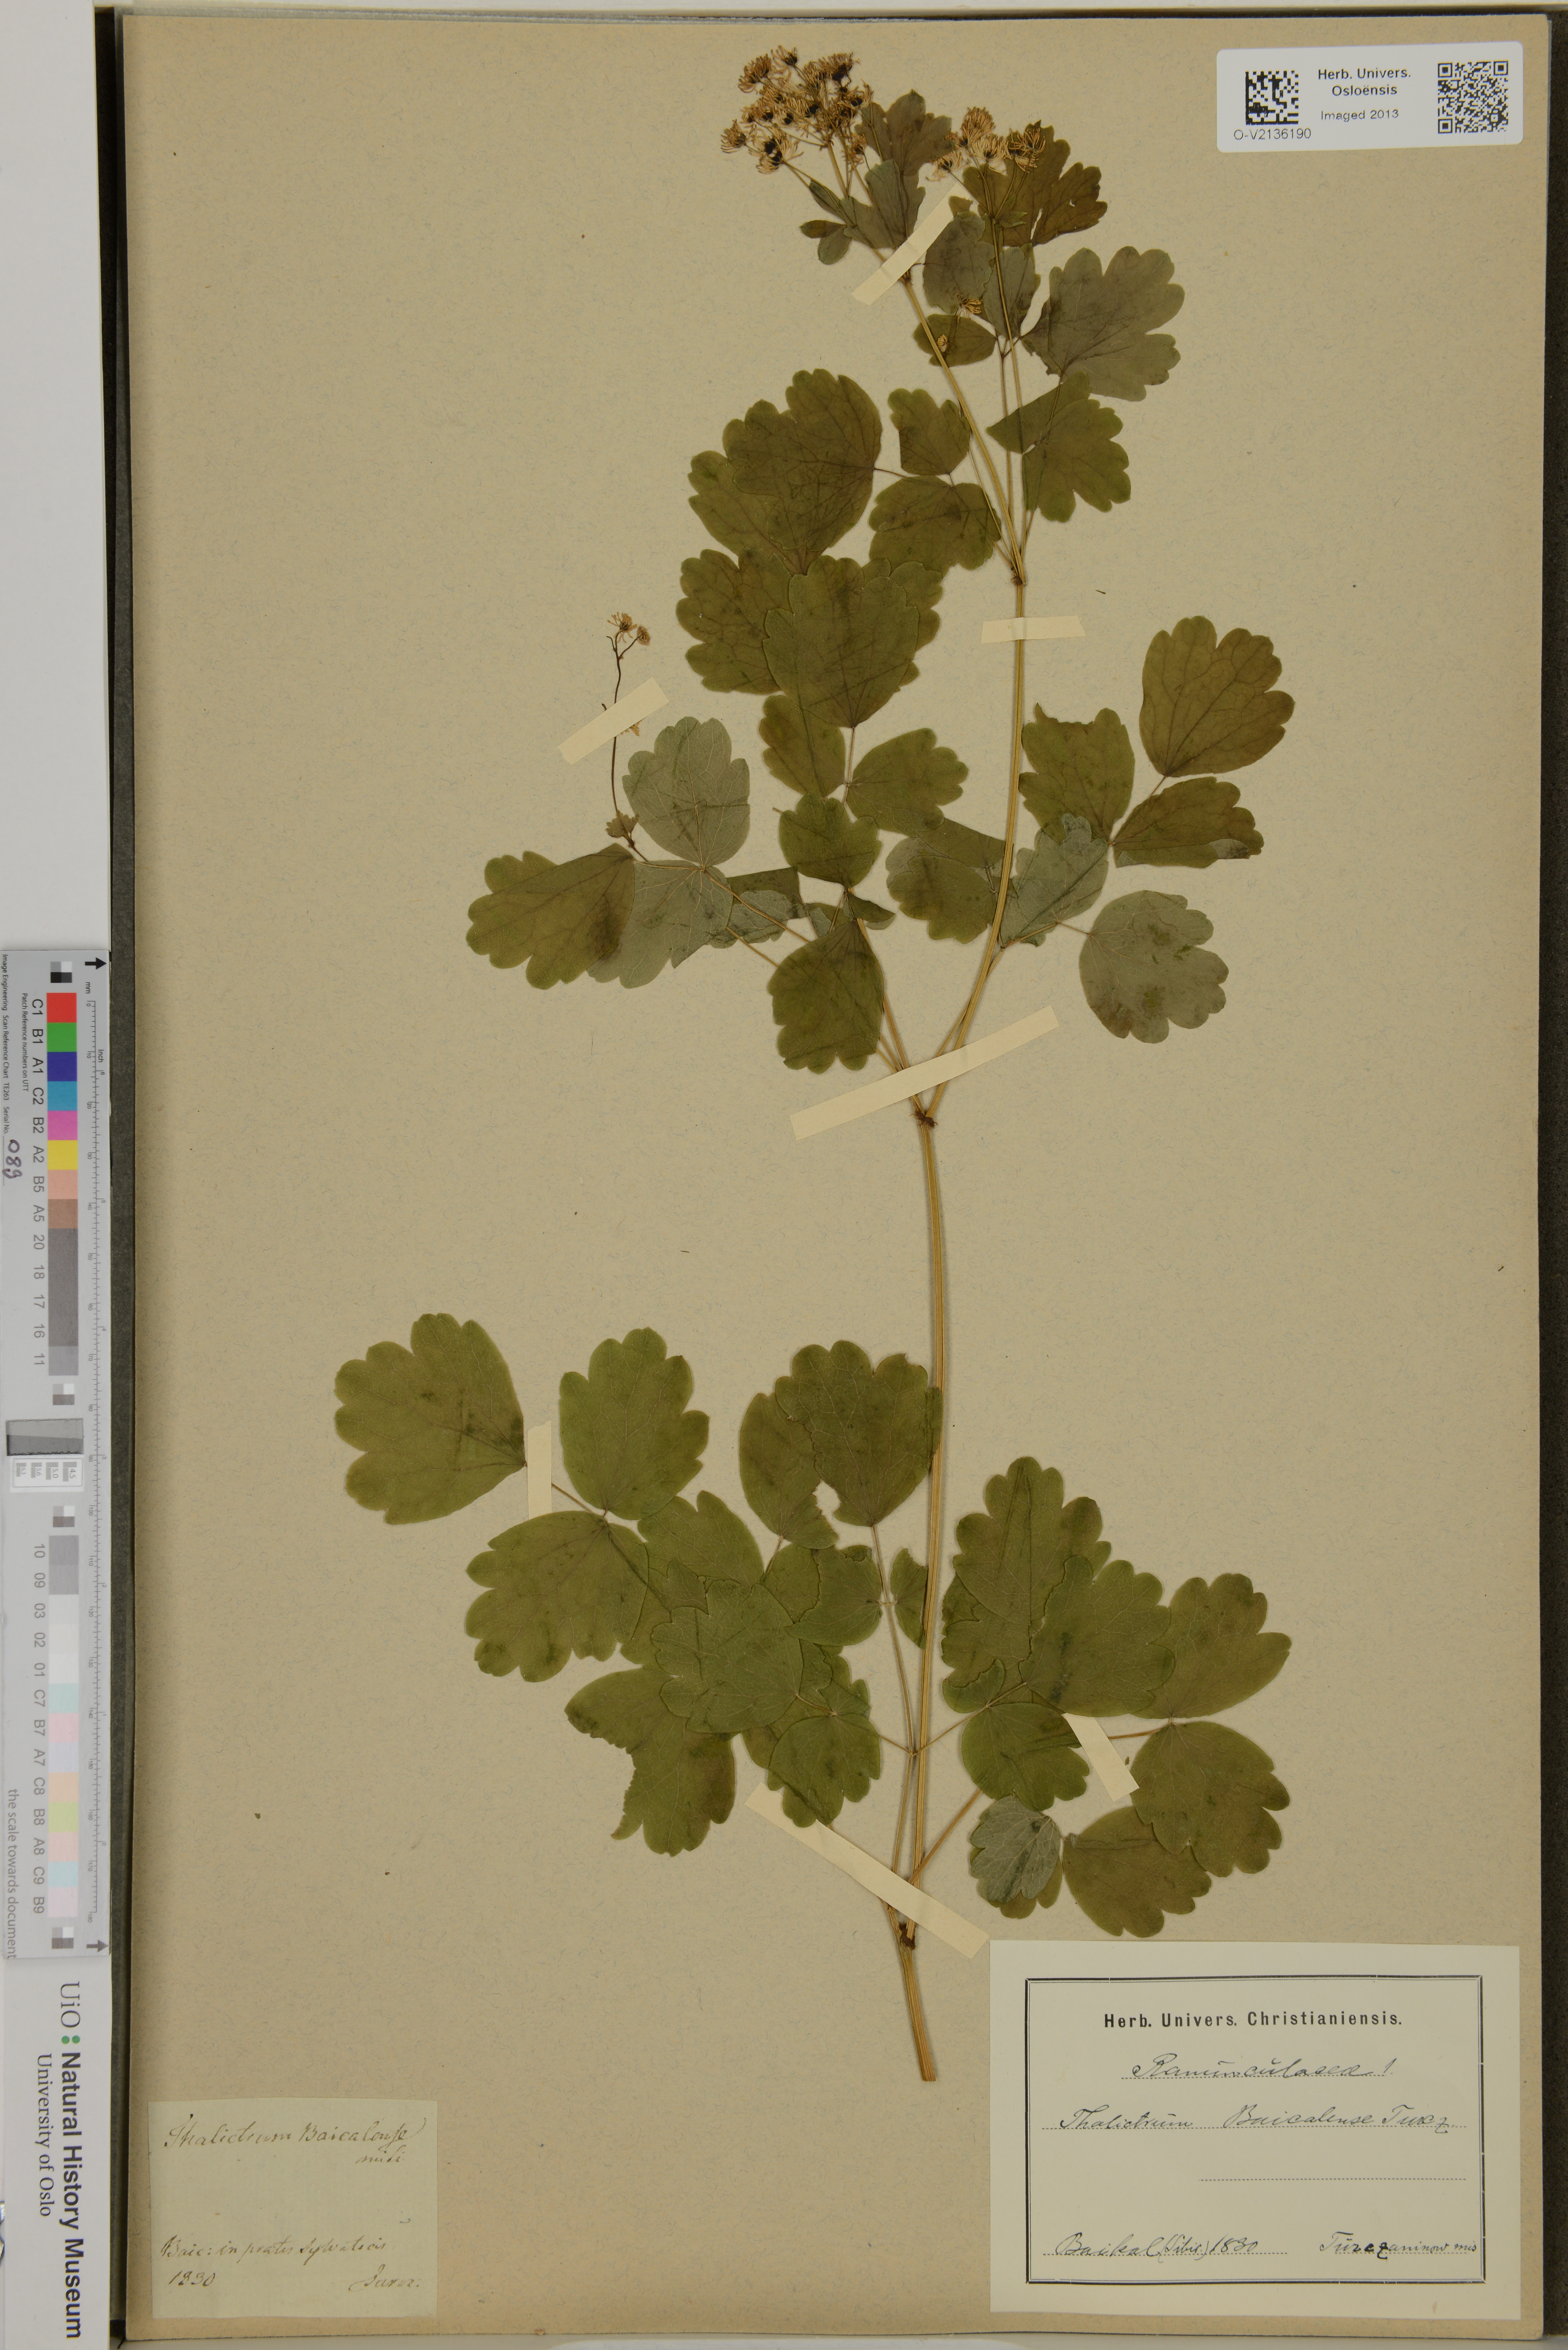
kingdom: Plantae
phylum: Tracheophyta
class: Magnoliopsida
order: Ranunculales
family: Ranunculaceae
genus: Thalictrum
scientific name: Thalictrum baicalense
